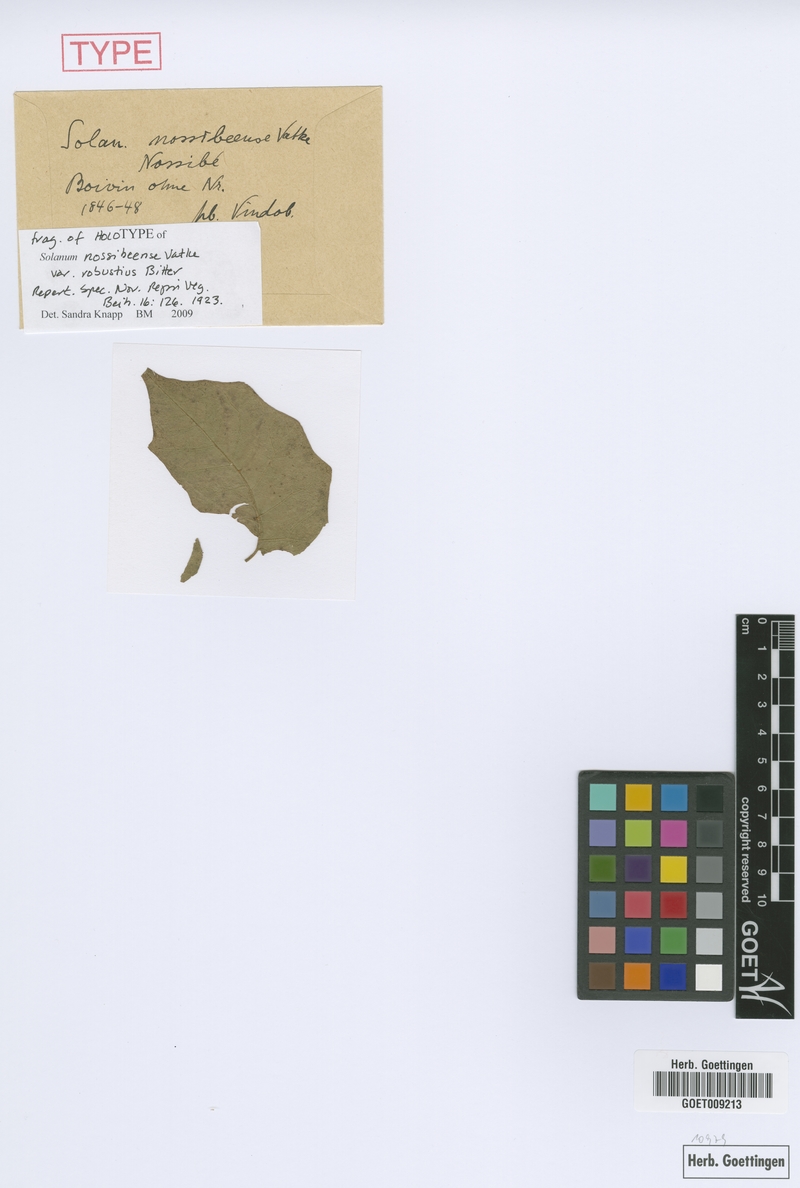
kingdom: Plantae
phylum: Tracheophyta
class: Magnoliopsida
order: Solanales
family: Solanaceae
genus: Solanum
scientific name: Solanum erythracanthum
